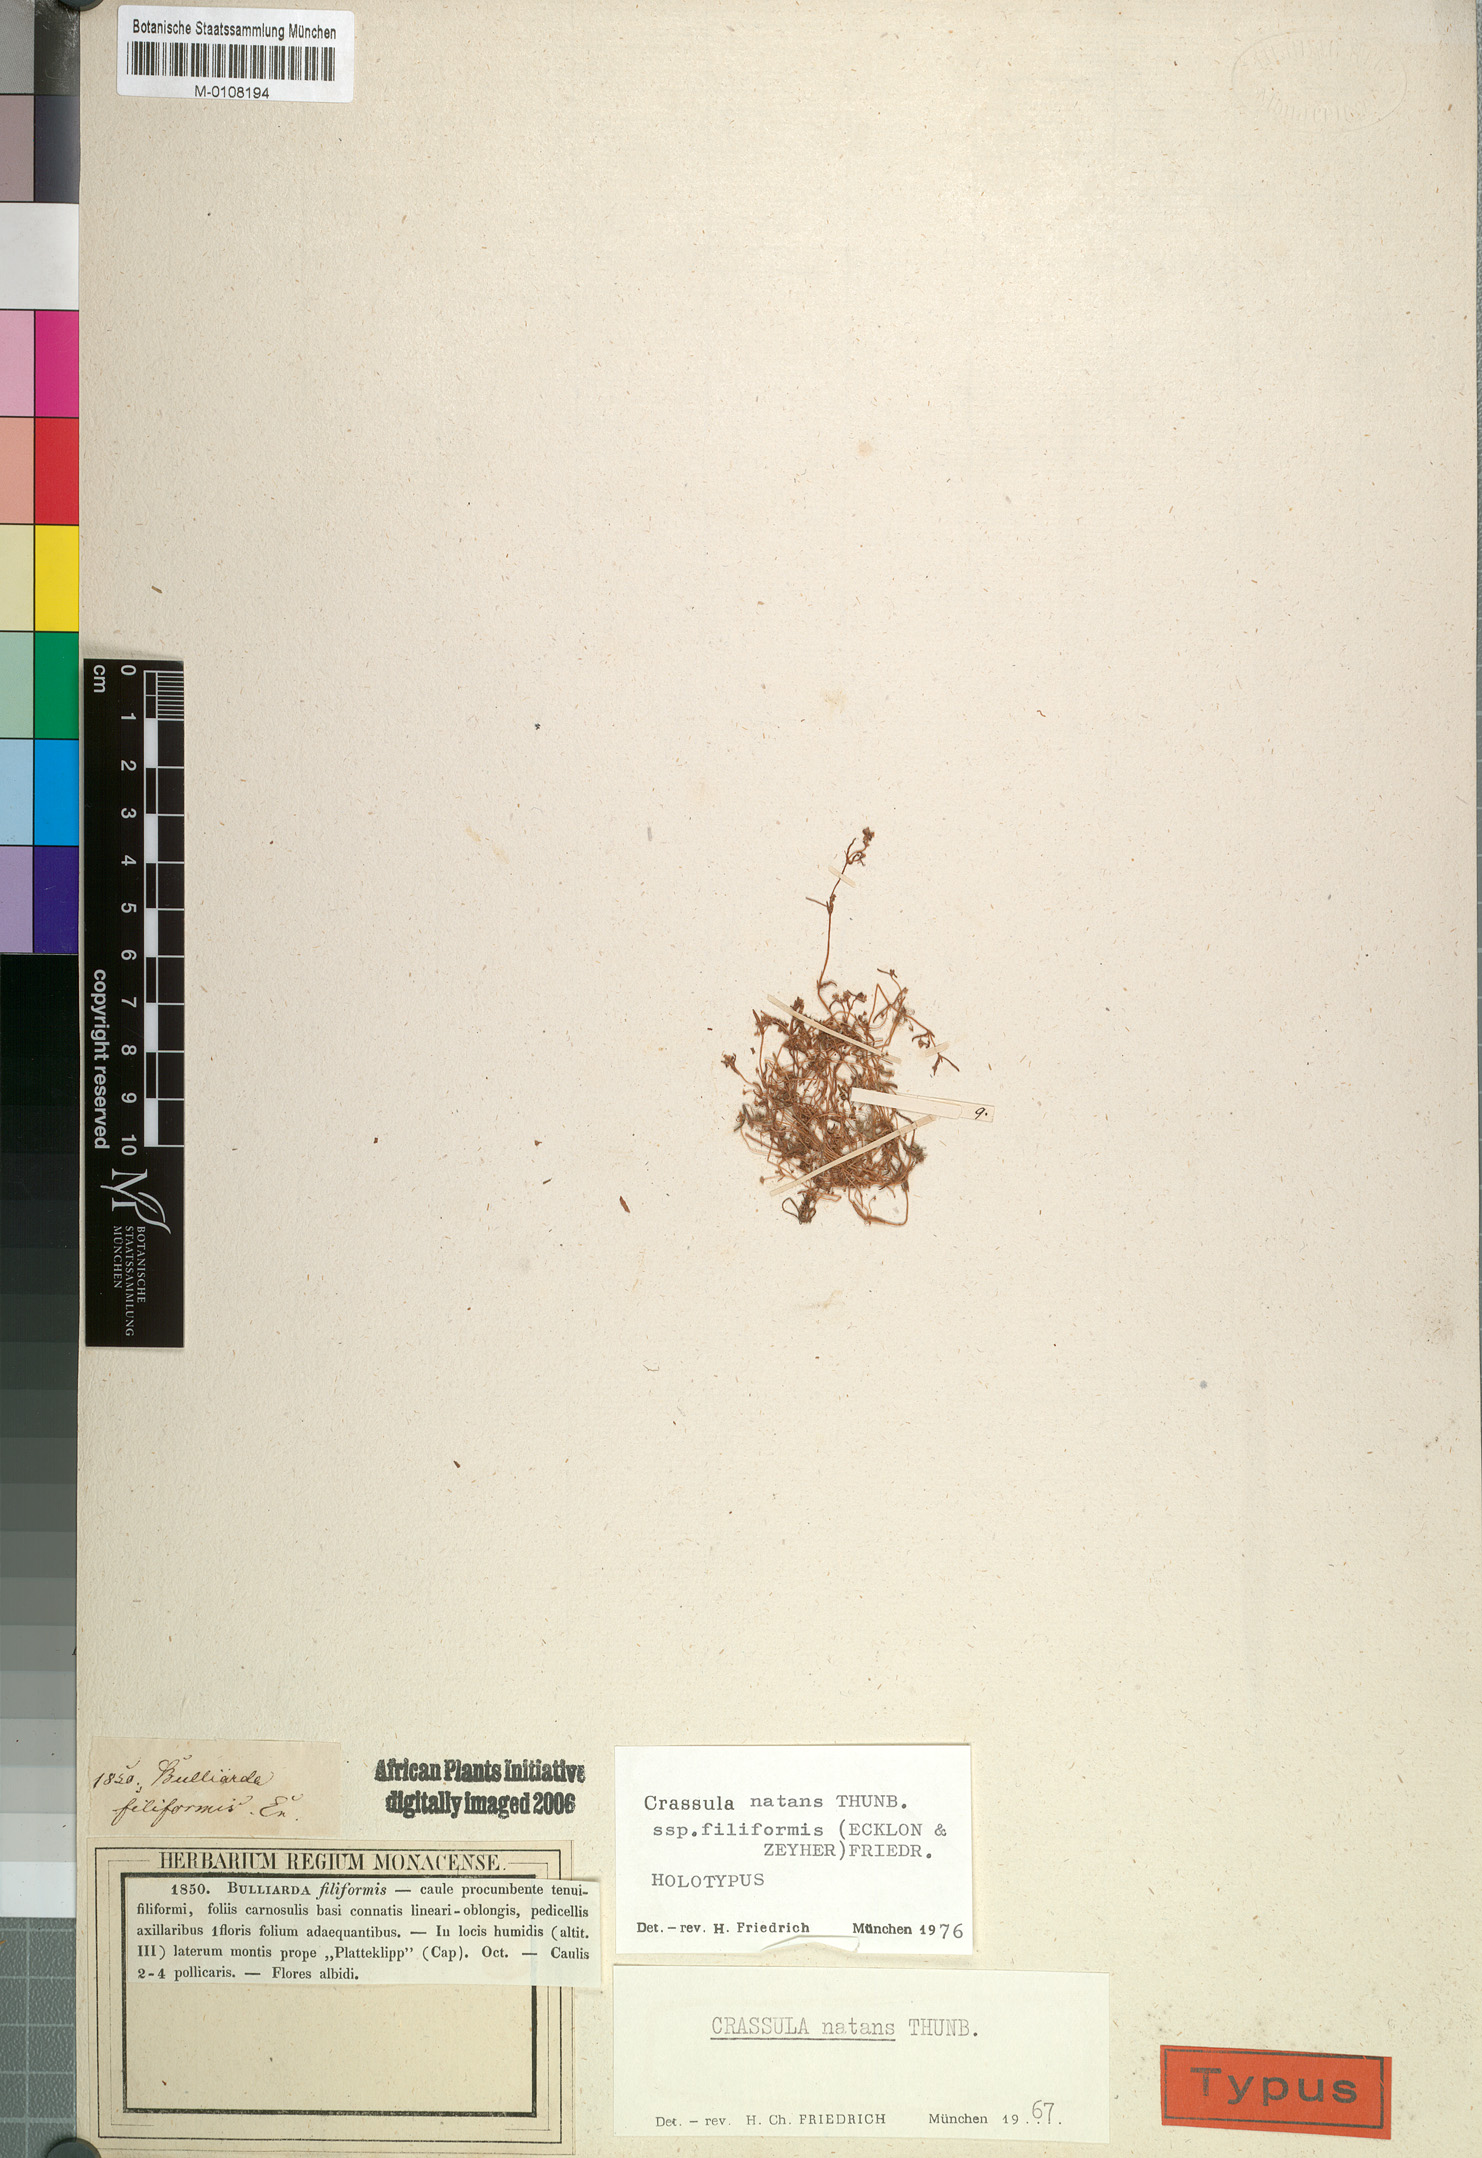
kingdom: Plantae
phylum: Tracheophyta
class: Magnoliopsida
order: Saxifragales
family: Crassulaceae
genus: Crassula
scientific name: Crassula natans
